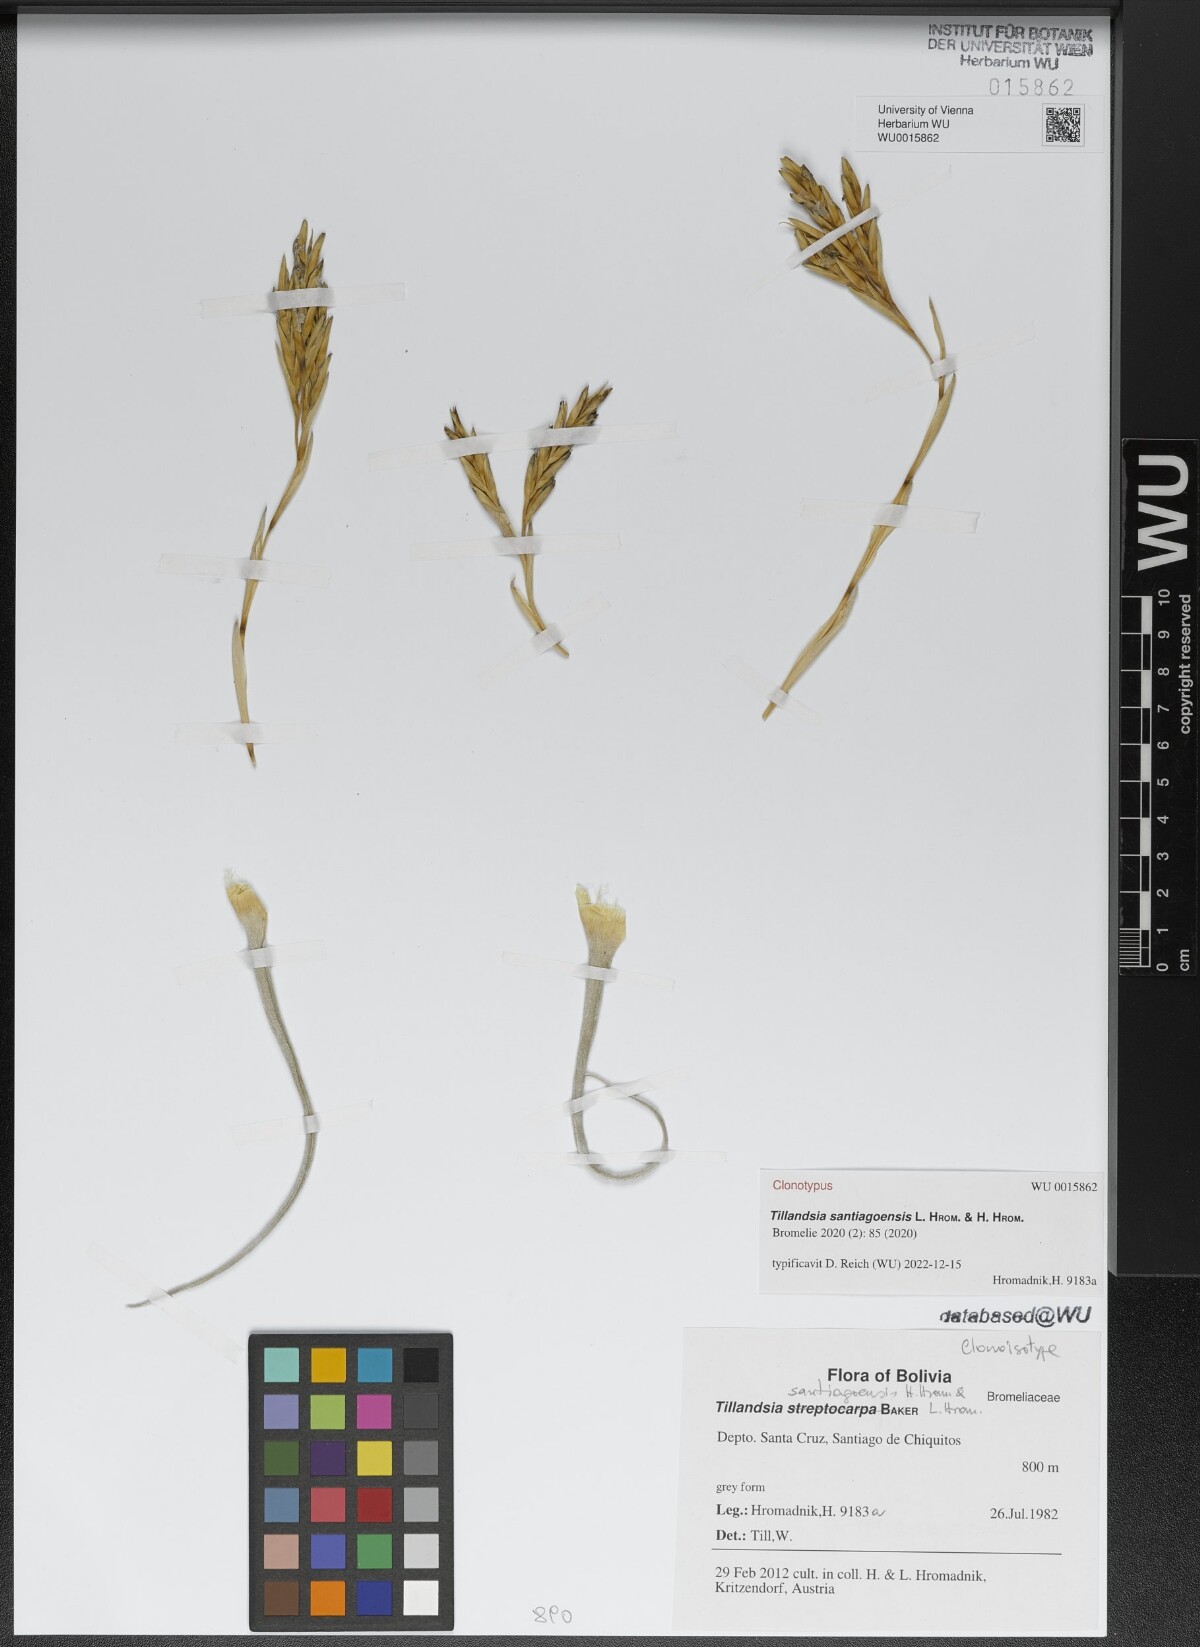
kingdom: Plantae
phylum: Tracheophyta
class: Liliopsida
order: Poales
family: Bromeliaceae
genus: Tillandsia
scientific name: Tillandsia santiagoensis
